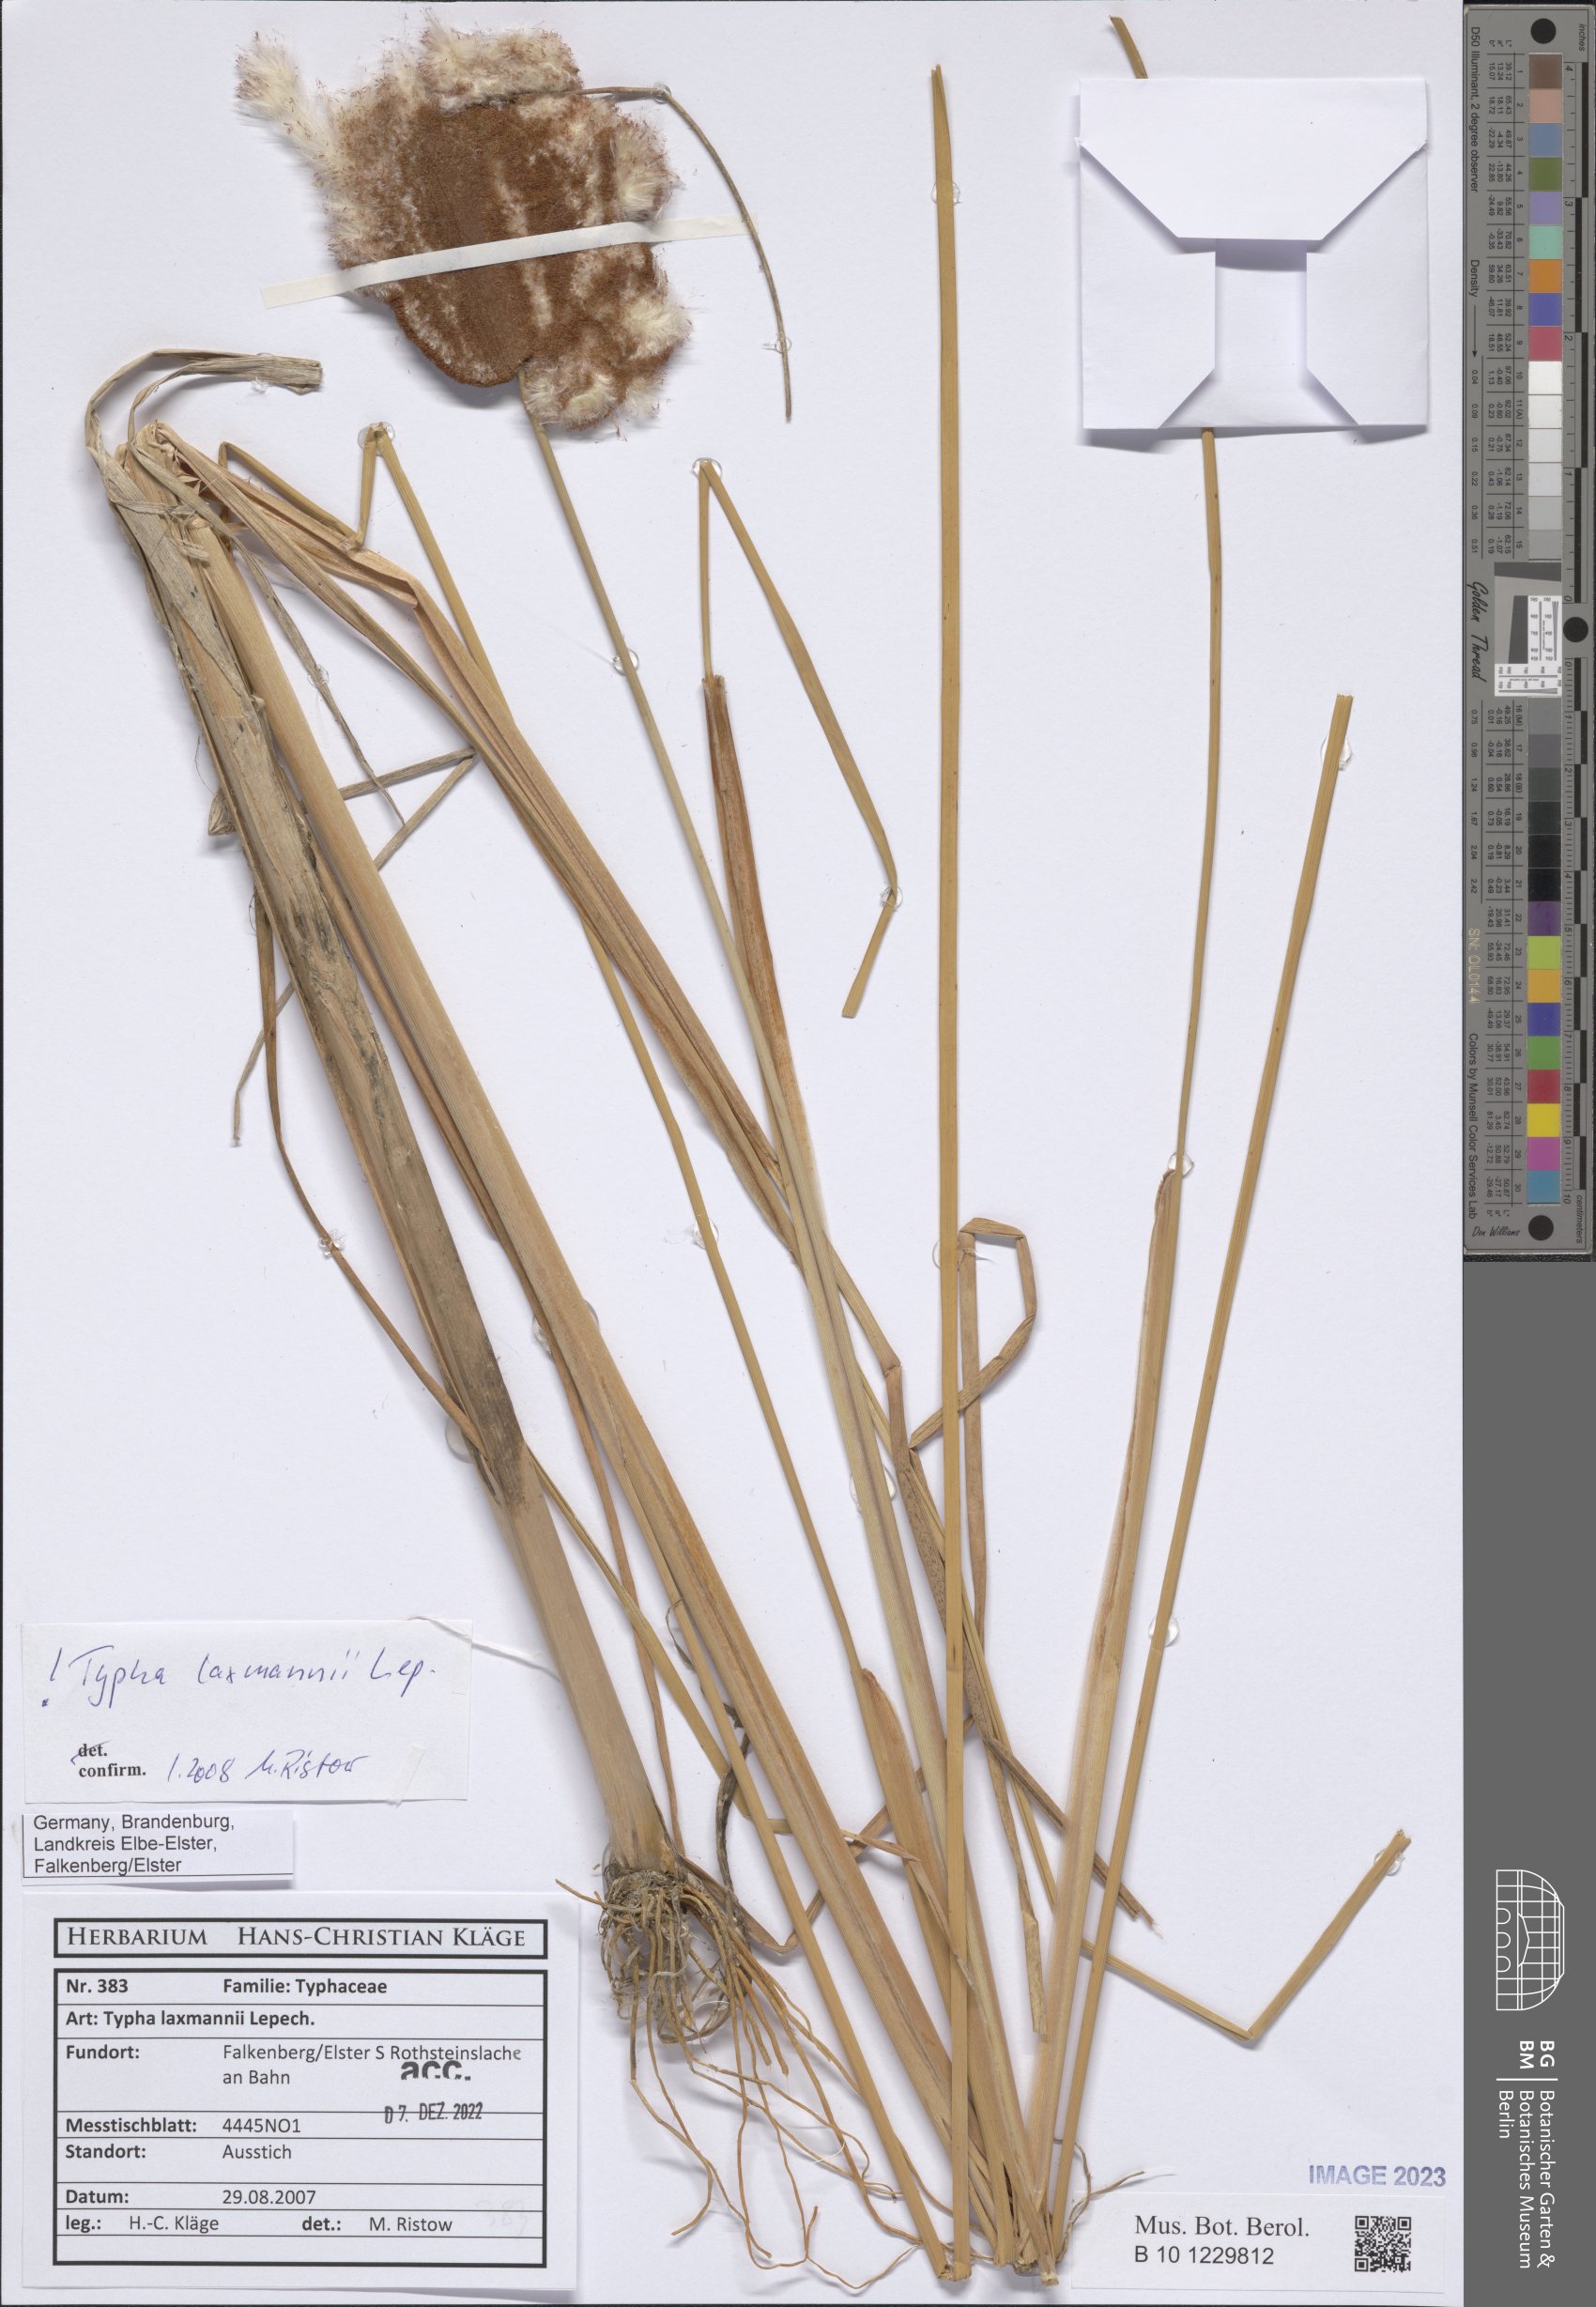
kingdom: Plantae
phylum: Tracheophyta
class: Liliopsida
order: Poales
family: Typhaceae
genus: Typha
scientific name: Typha laxmannii
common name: Laxman’s bulrush
